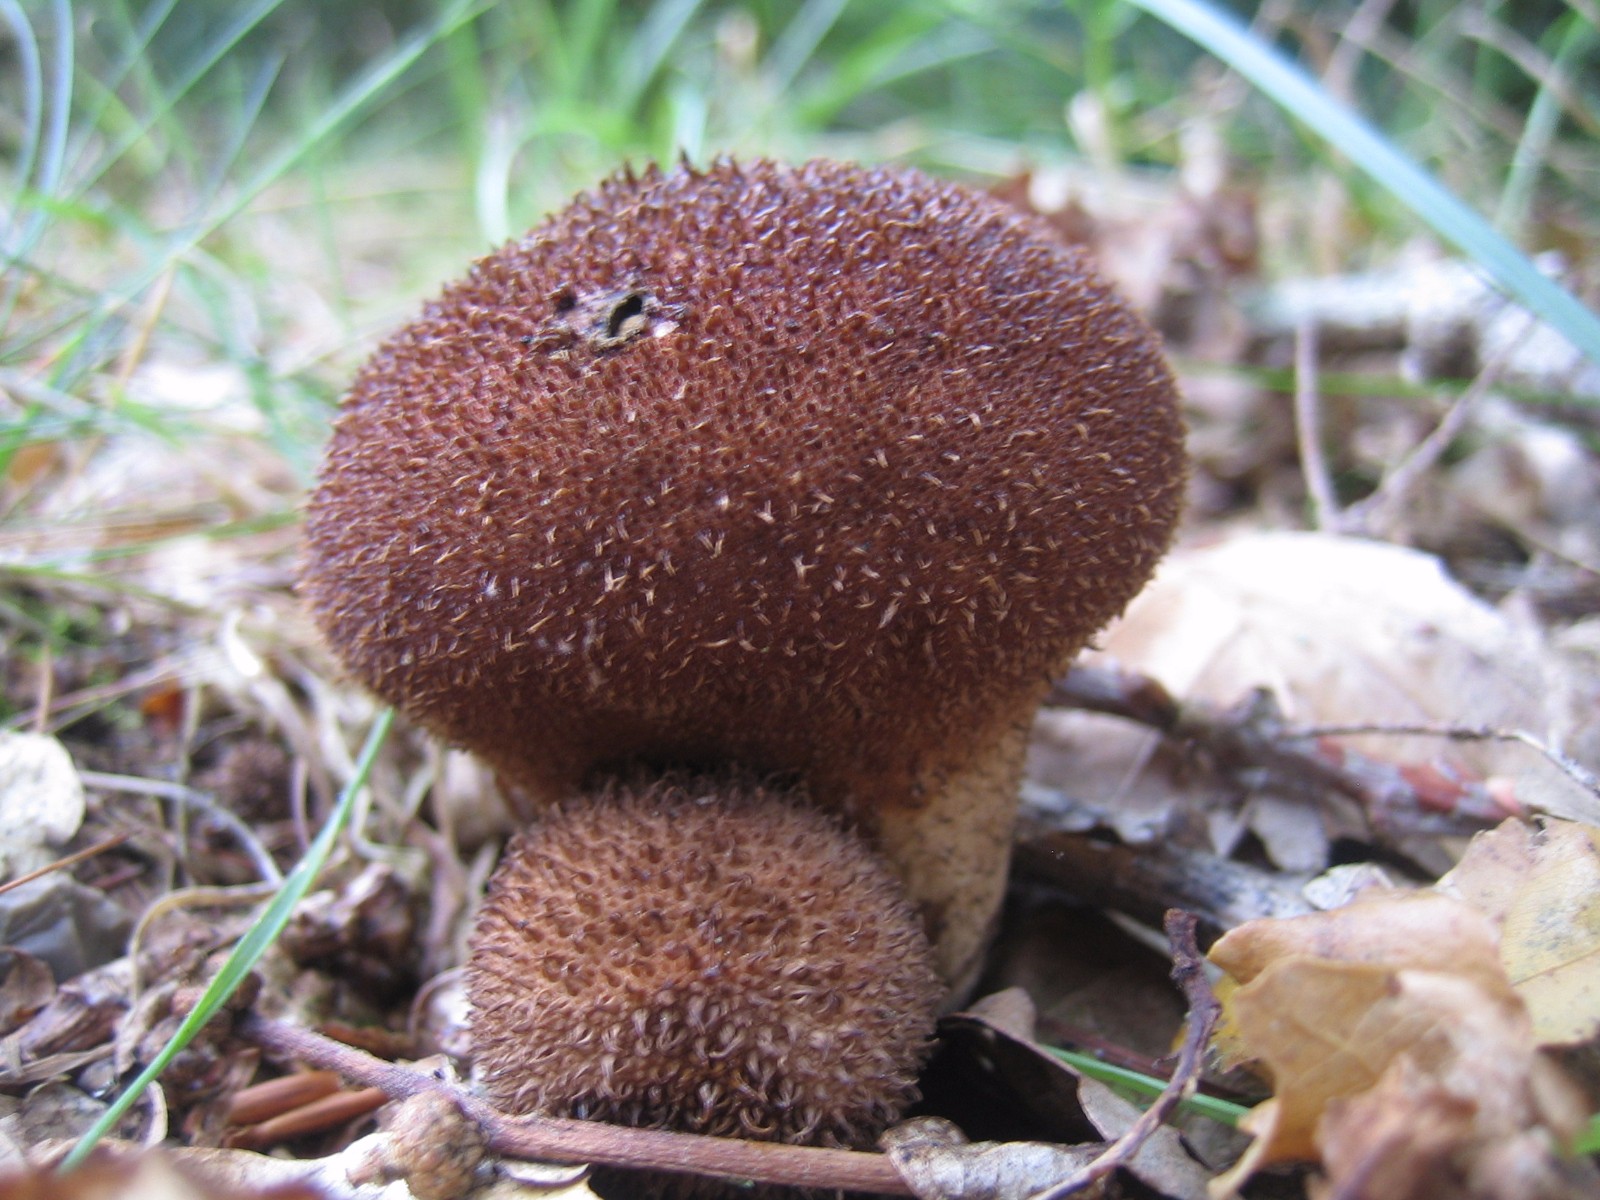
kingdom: Fungi
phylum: Basidiomycota
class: Agaricomycetes
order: Agaricales
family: Lycoperdaceae
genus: Lycoperdon
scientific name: Lycoperdon nigrescens
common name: sortagtig støvbold
